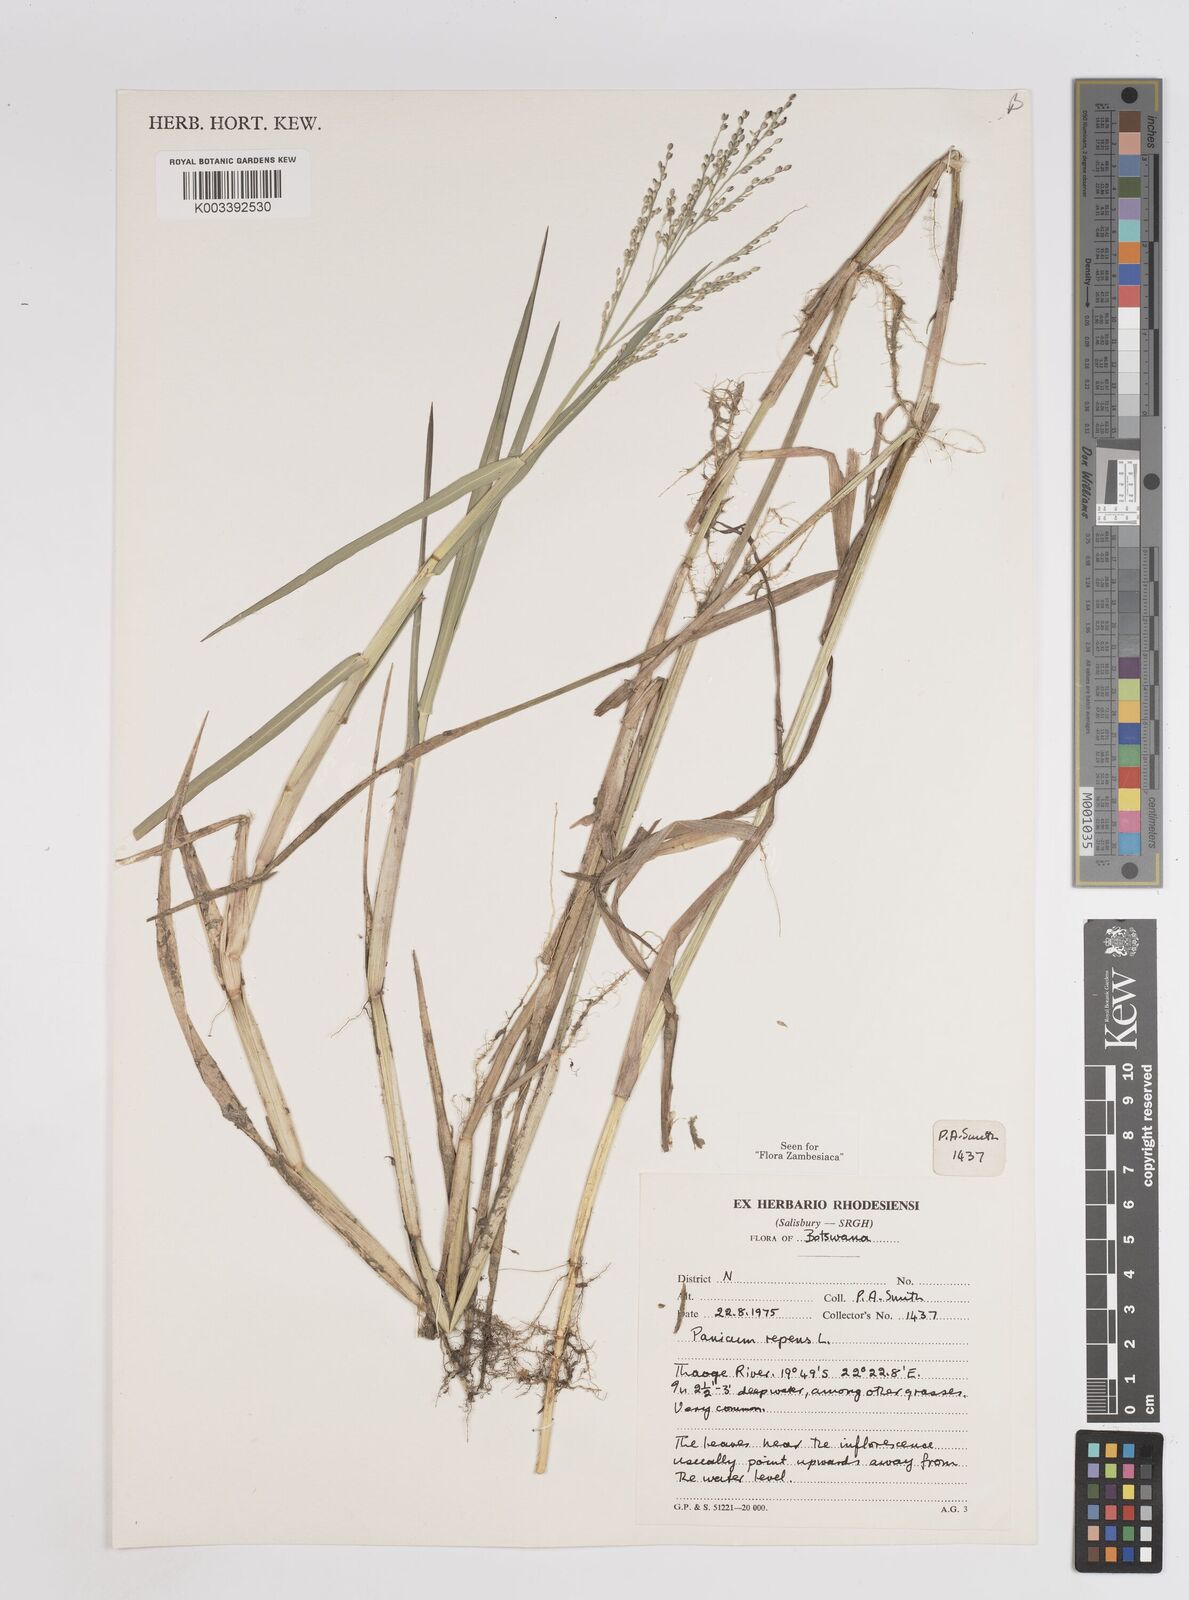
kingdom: Plantae
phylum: Tracheophyta
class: Liliopsida
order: Poales
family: Poaceae
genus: Panicum
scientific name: Panicum repens
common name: Torpedo grass
